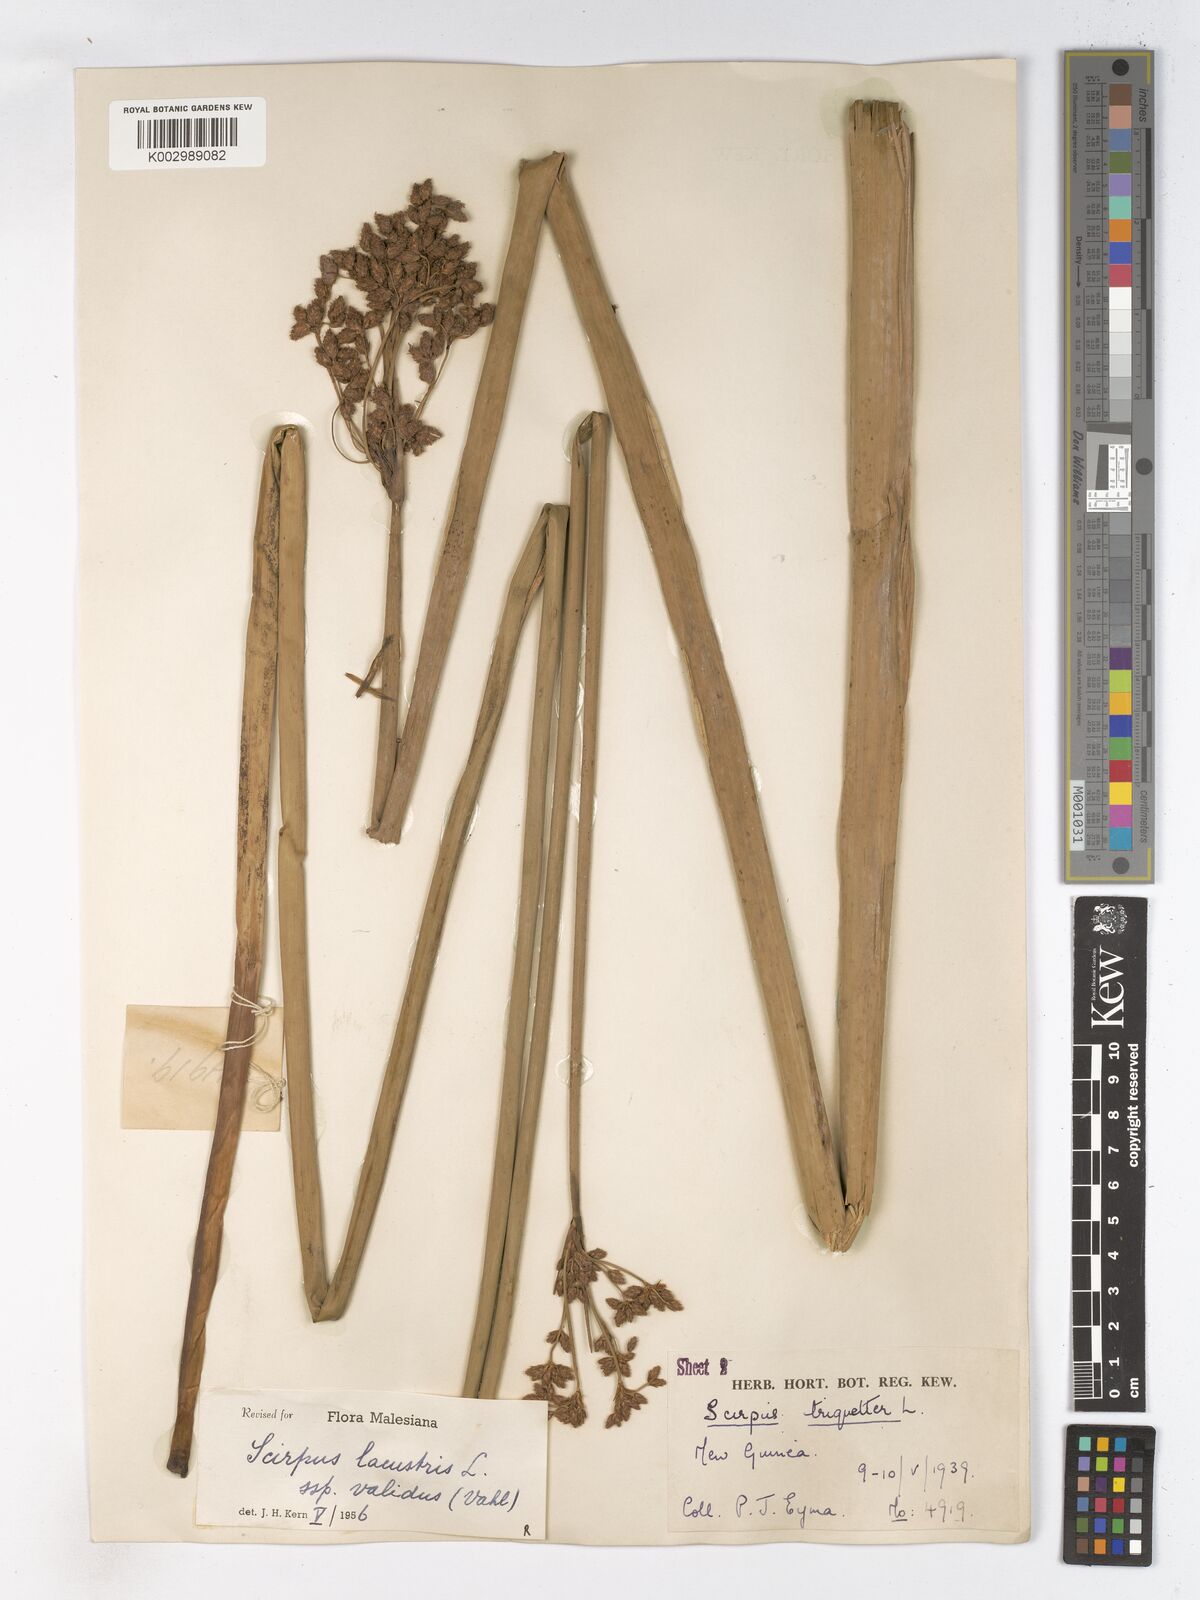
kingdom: Plantae
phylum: Tracheophyta
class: Liliopsida
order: Poales
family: Cyperaceae
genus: Schoenoplectus
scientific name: Schoenoplectus lacustris
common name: Common club-rush
